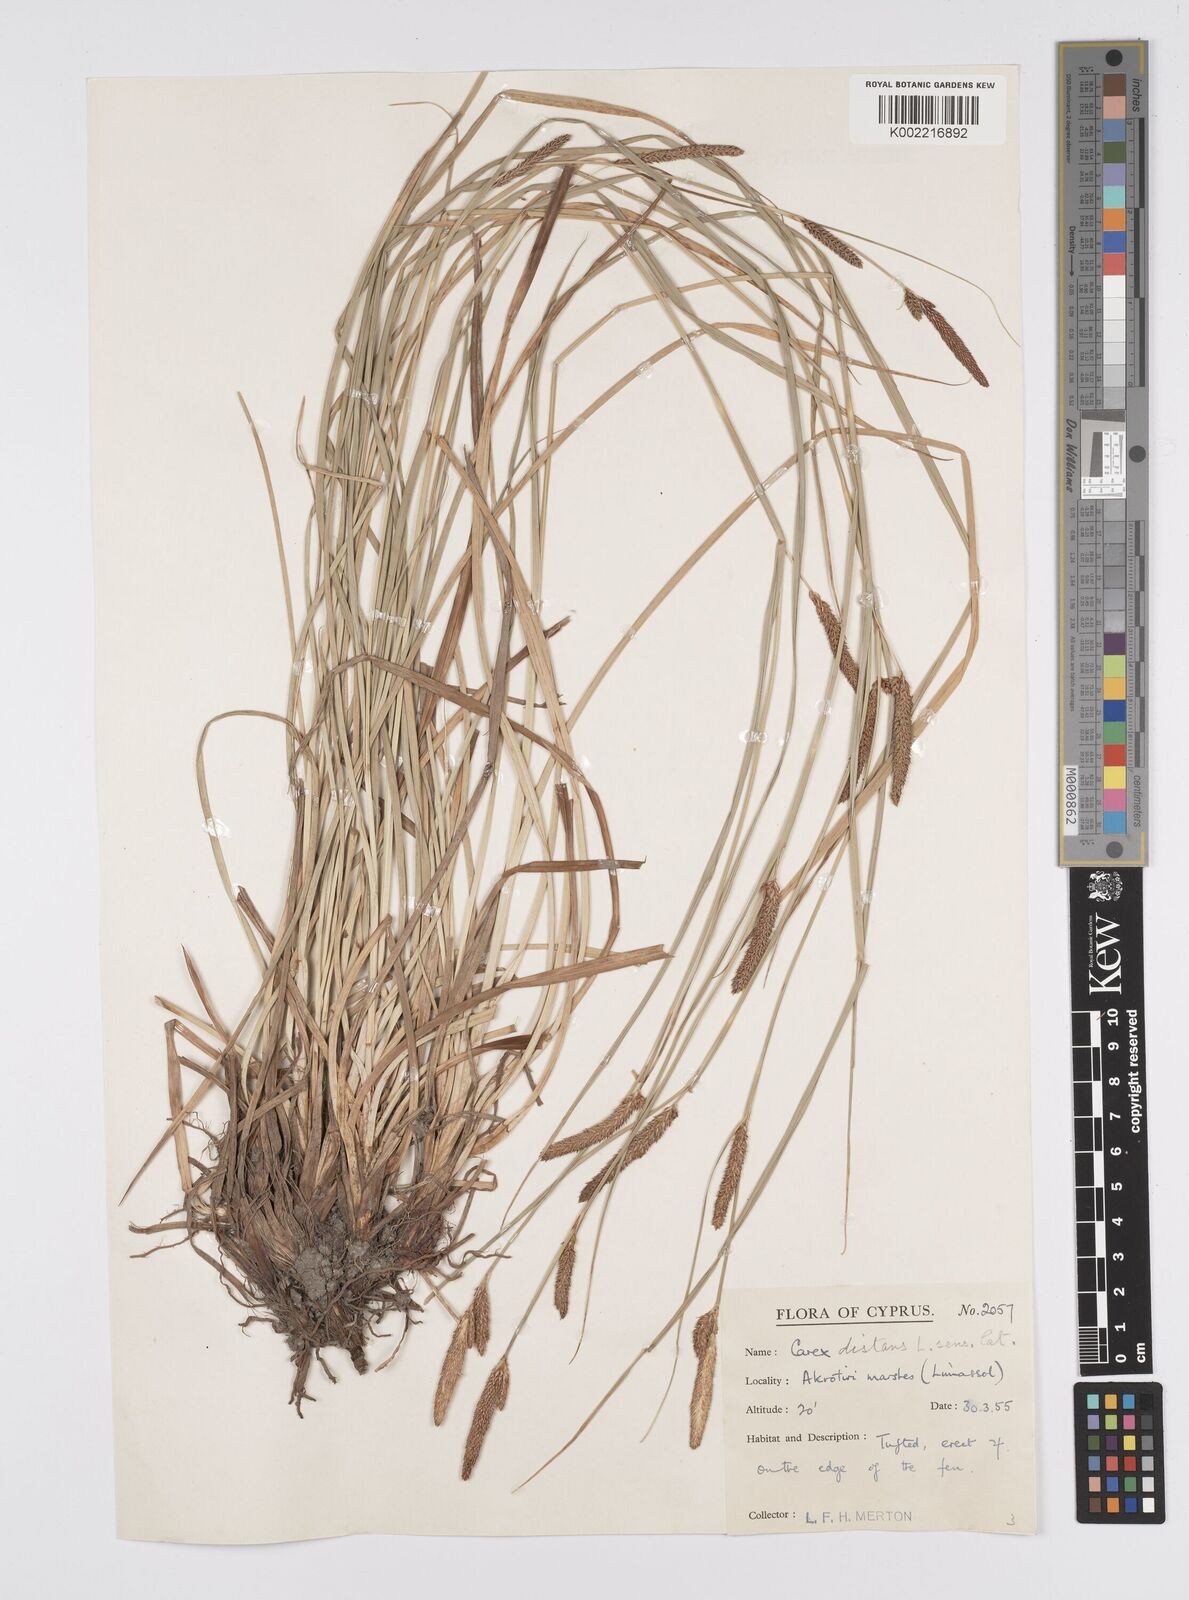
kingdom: Plantae
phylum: Tracheophyta
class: Liliopsida
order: Poales
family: Cyperaceae
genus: Carex
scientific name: Carex distans
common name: Distant sedge
